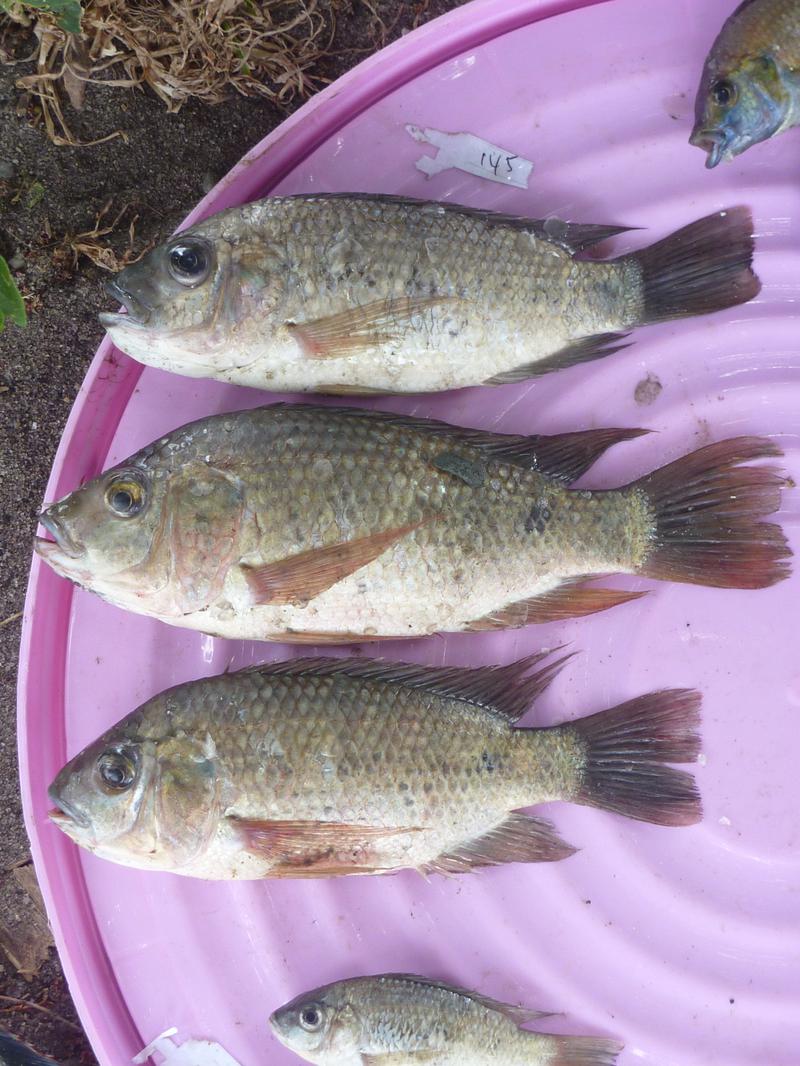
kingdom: Animalia
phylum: Chordata
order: Perciformes
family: Cichlidae
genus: Oreochromis
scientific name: Oreochromis shiranus
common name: Chilwa tilapia
